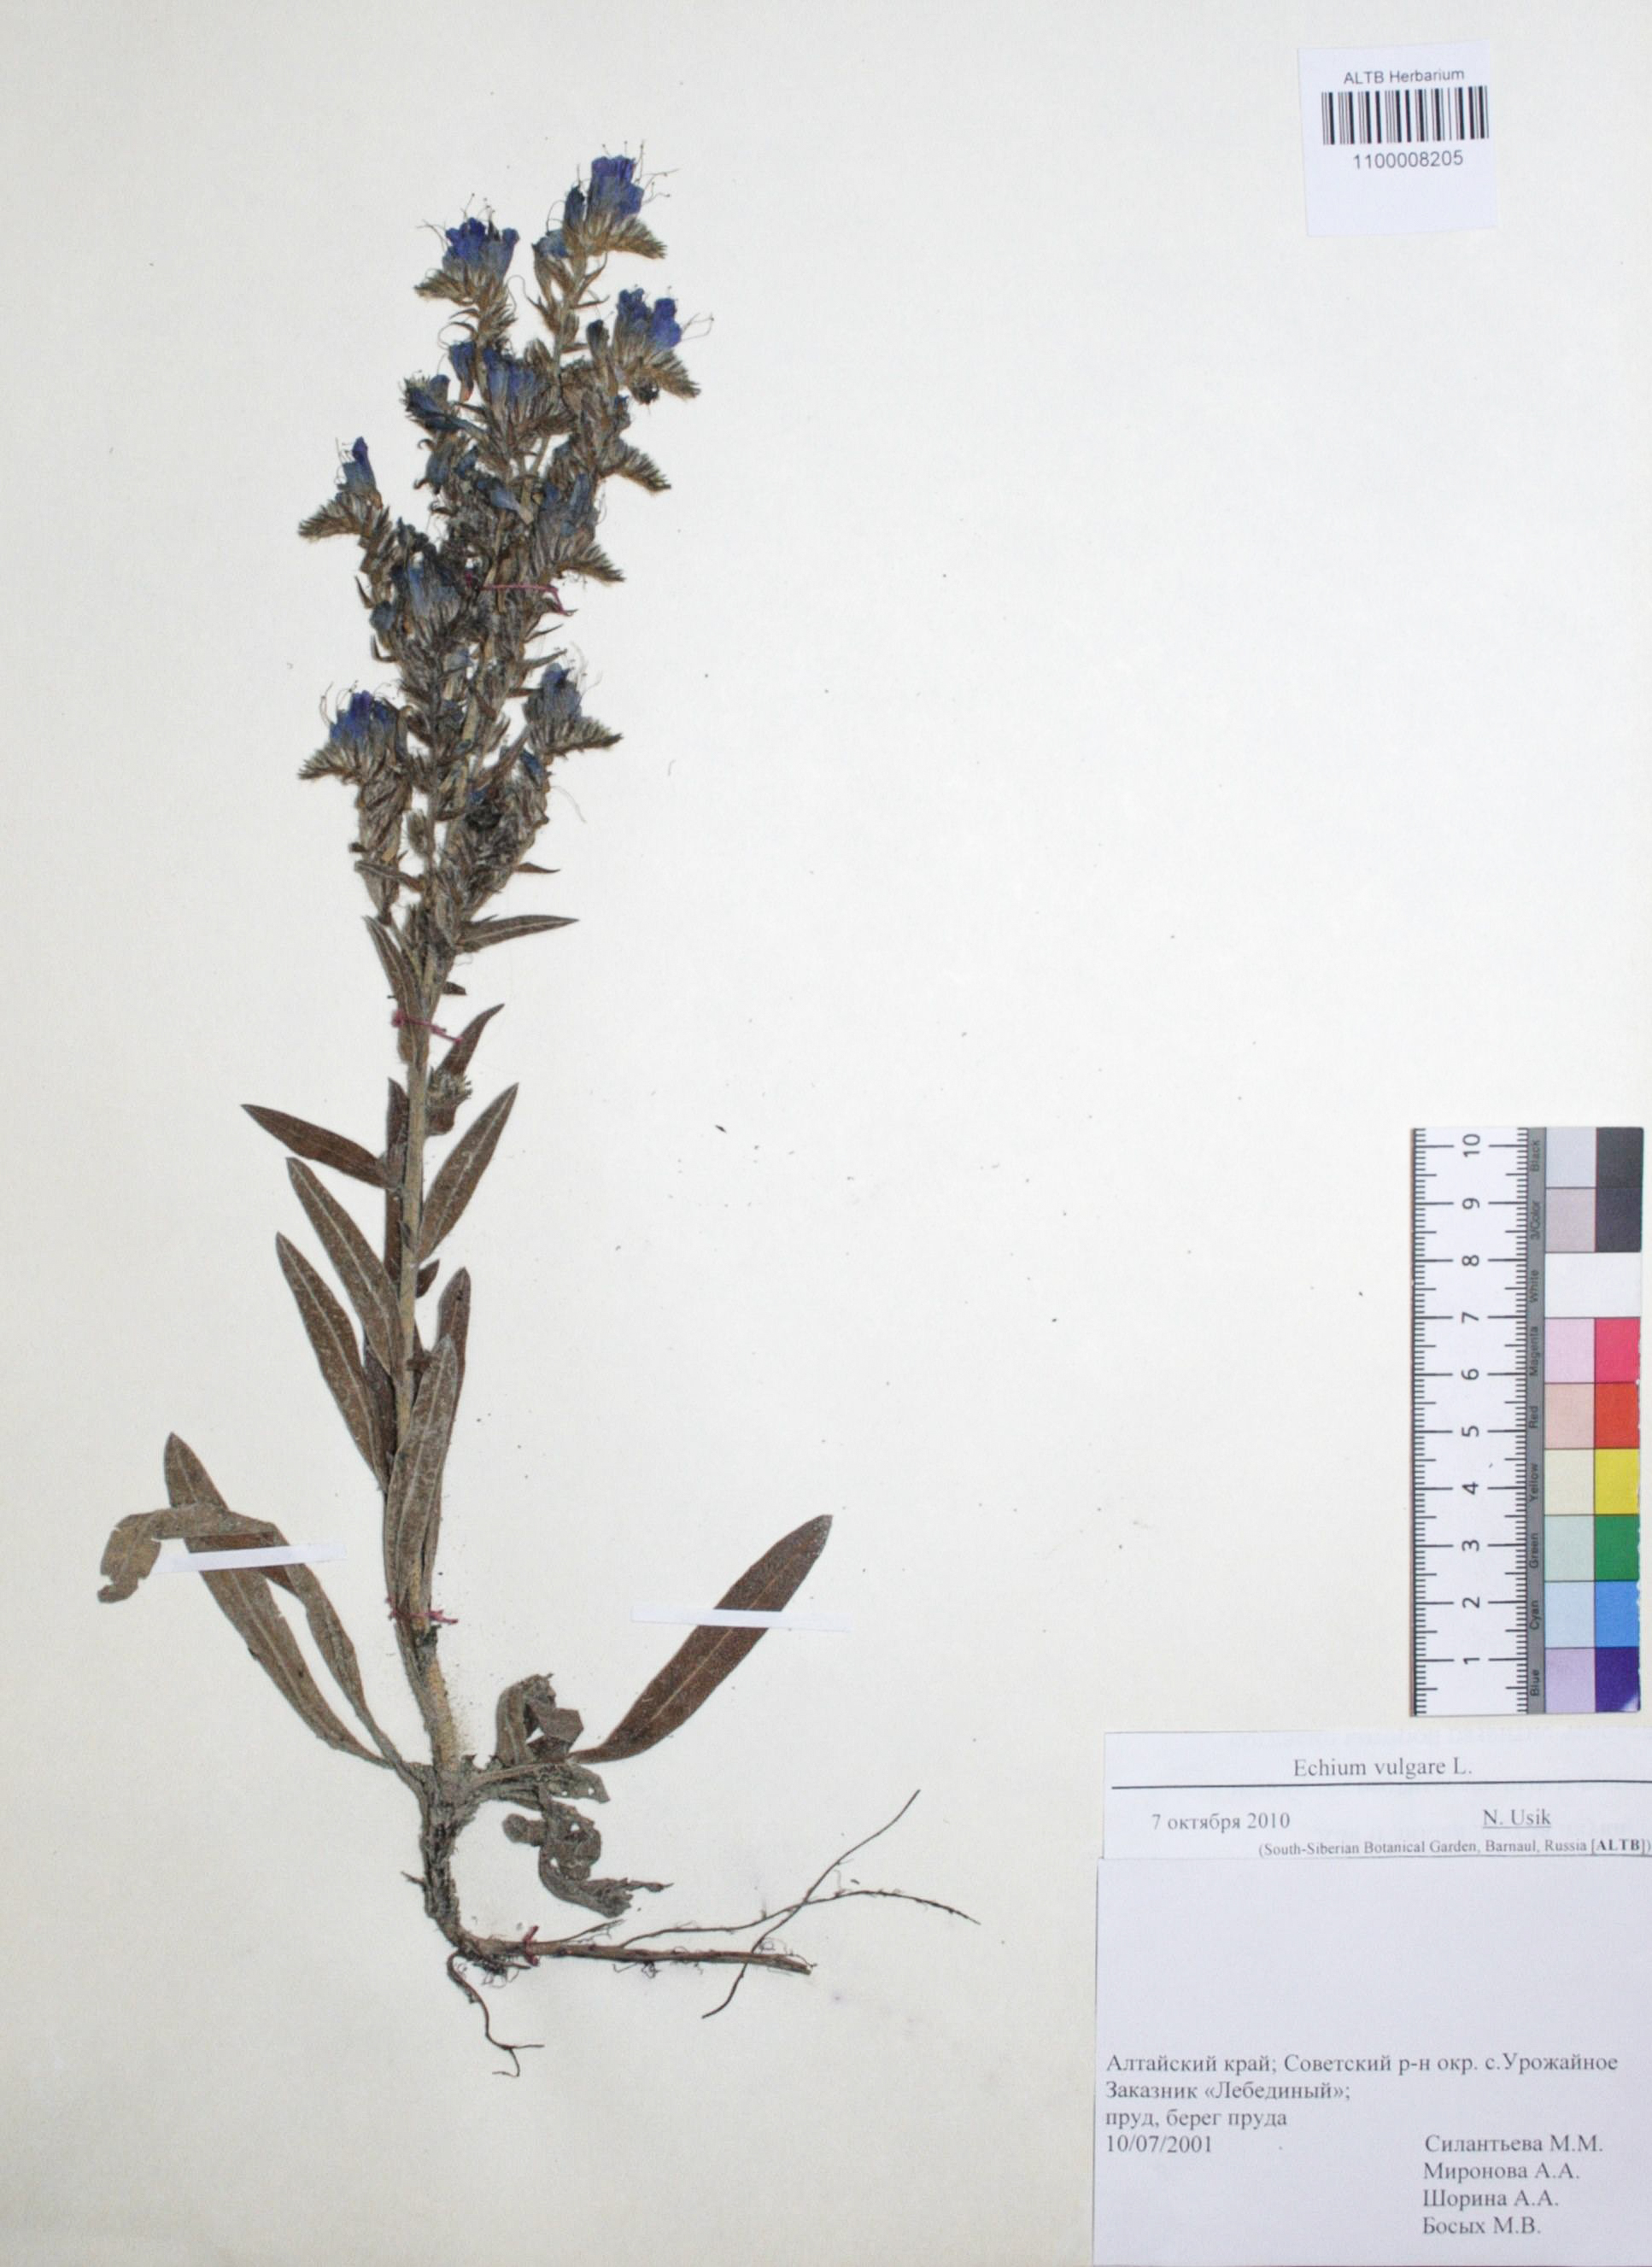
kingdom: Plantae
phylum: Tracheophyta
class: Magnoliopsida
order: Boraginales
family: Boraginaceae
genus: Echium
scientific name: Echium vulgare
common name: Common viper's bugloss
